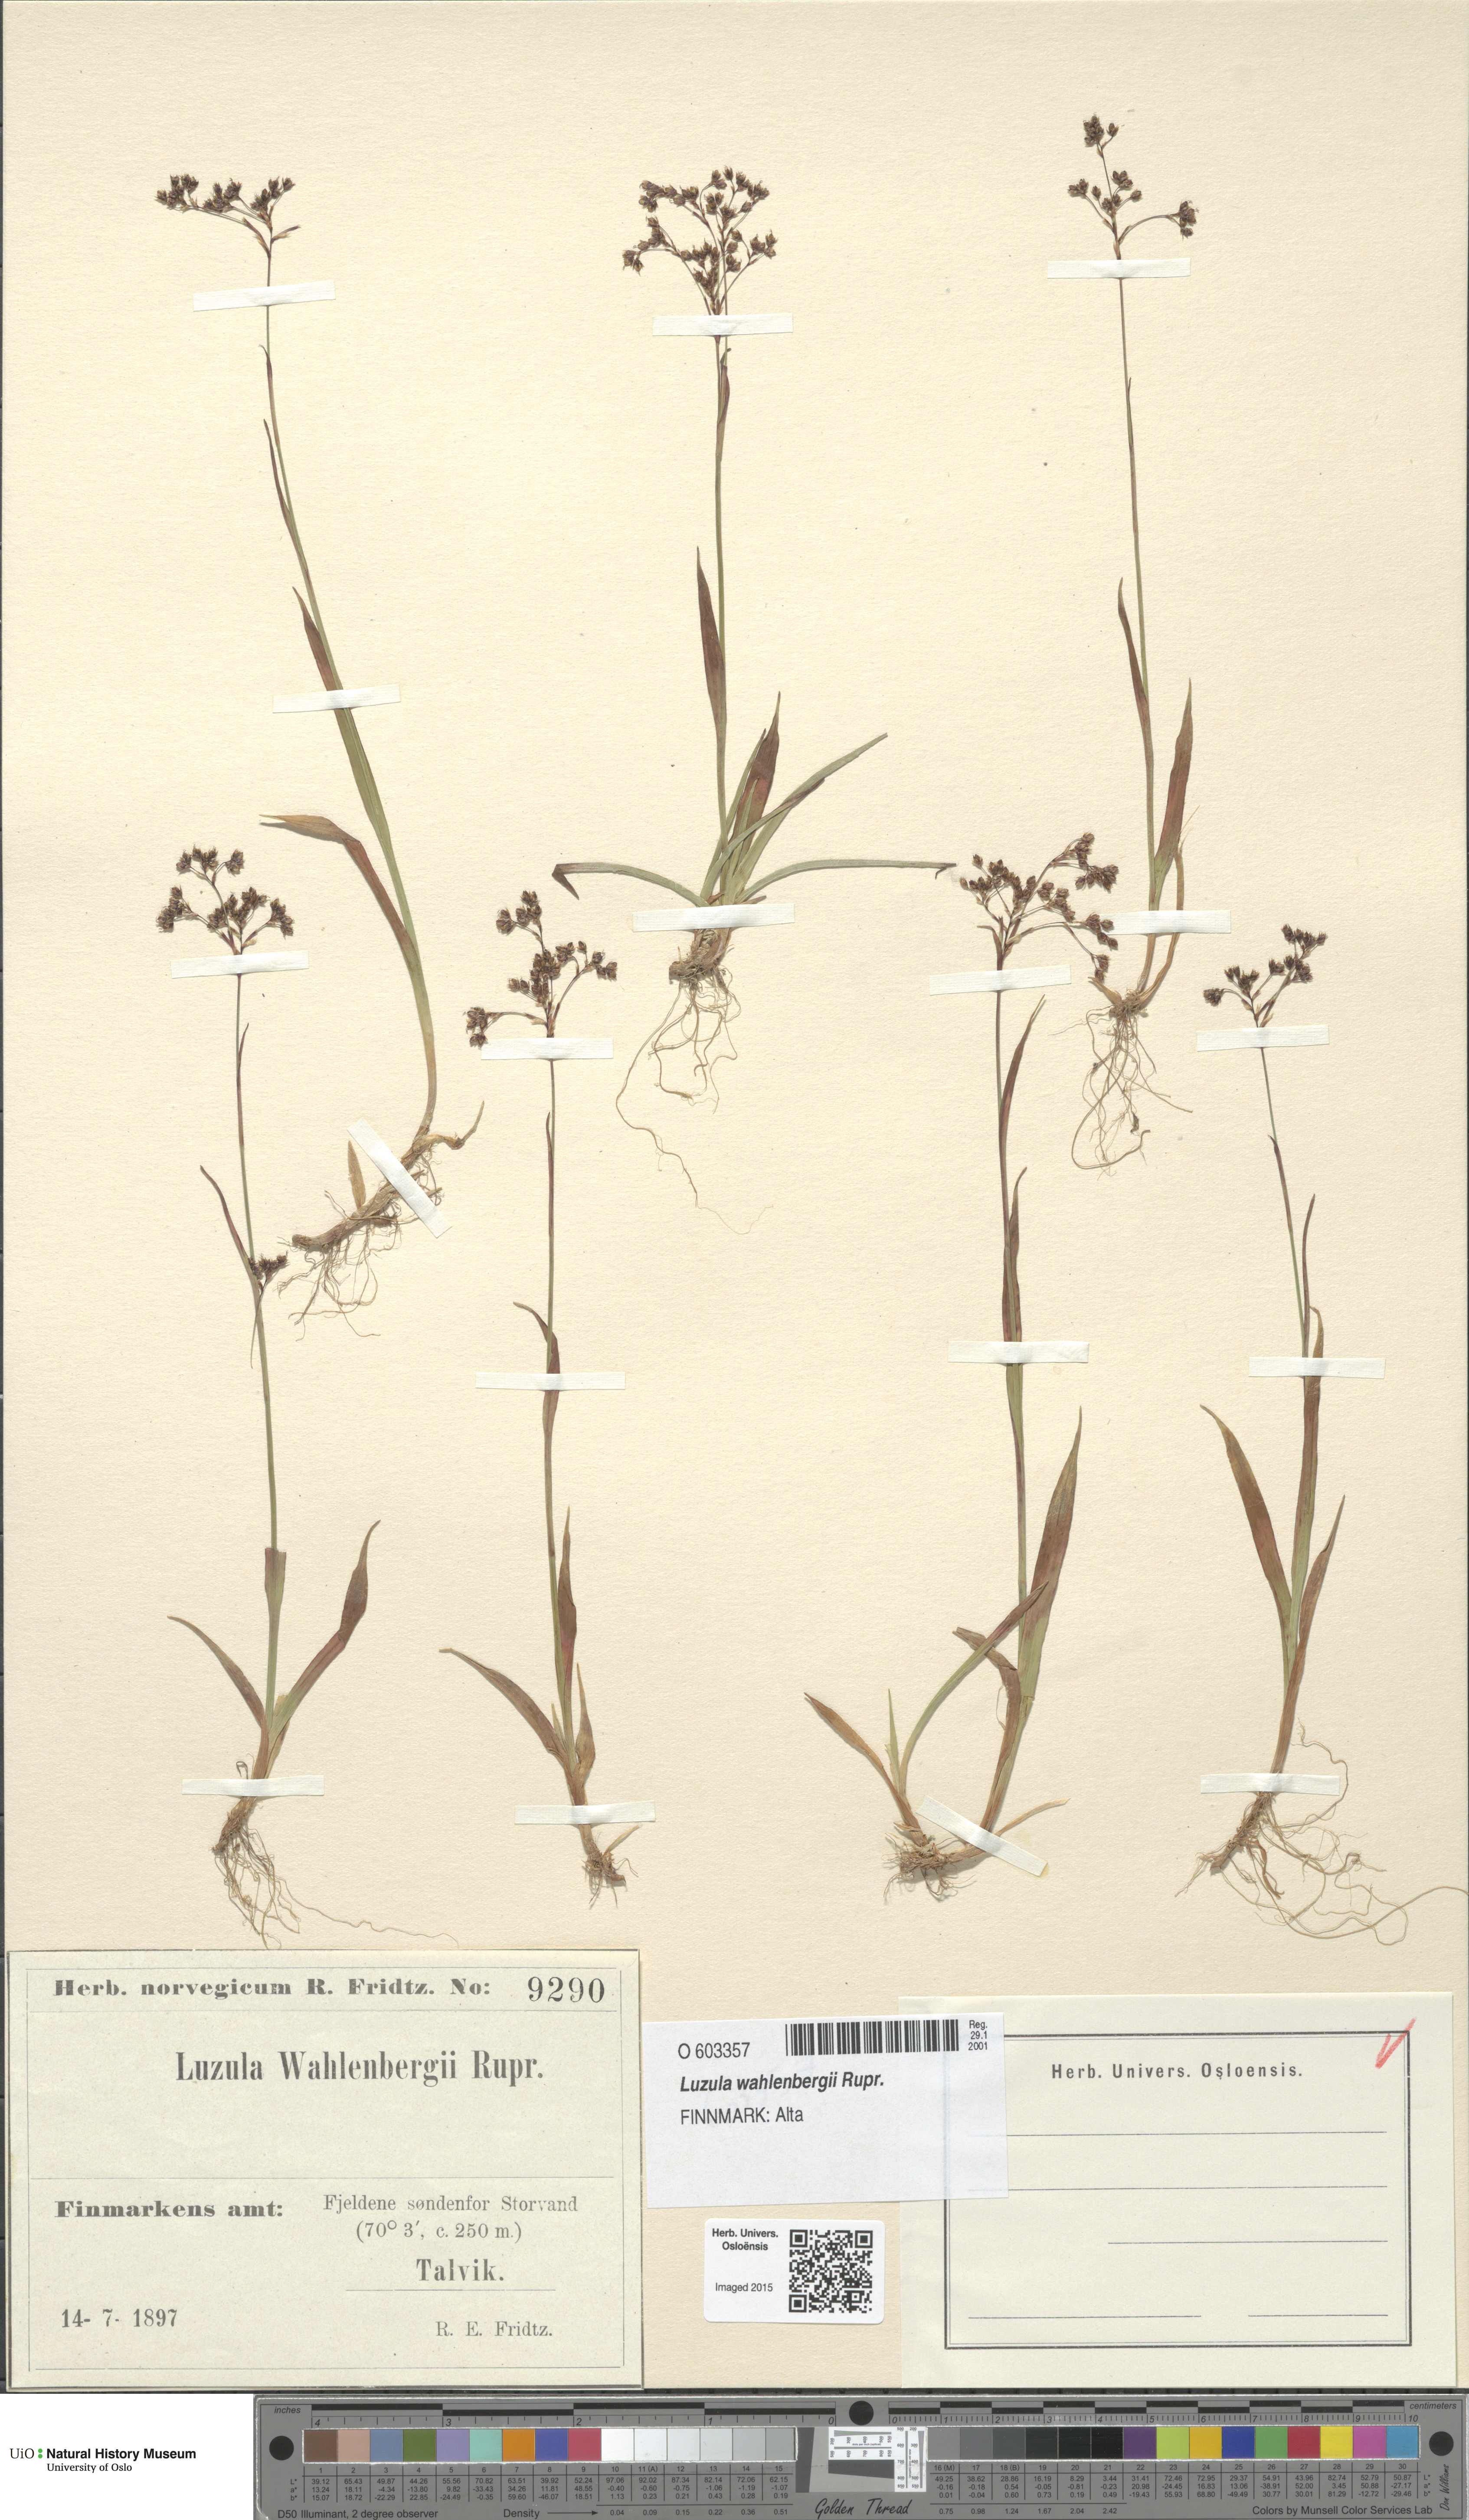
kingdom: Plantae
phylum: Tracheophyta
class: Liliopsida
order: Poales
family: Juncaceae
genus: Luzula
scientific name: Luzula wahlenbergii
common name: Wahlenberg's wood-rush
